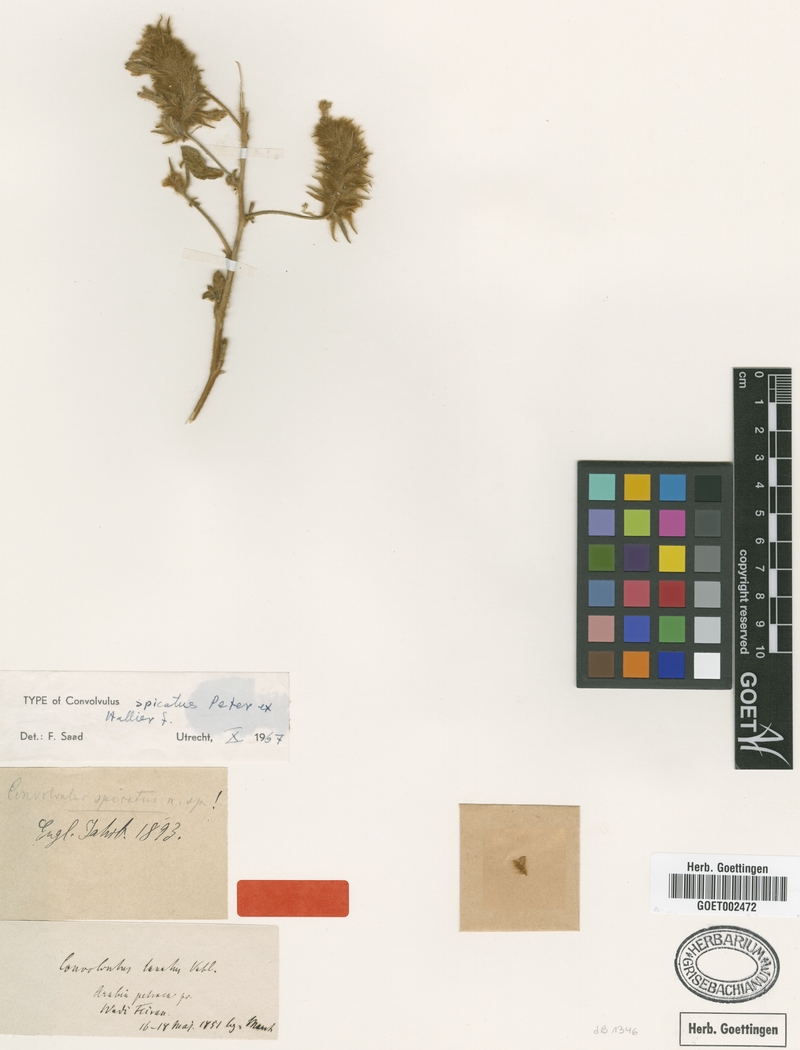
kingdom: Plantae
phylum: Tracheophyta
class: Magnoliopsida
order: Solanales
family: Convolvulaceae
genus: Convolvulus
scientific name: Convolvulus spicatus
